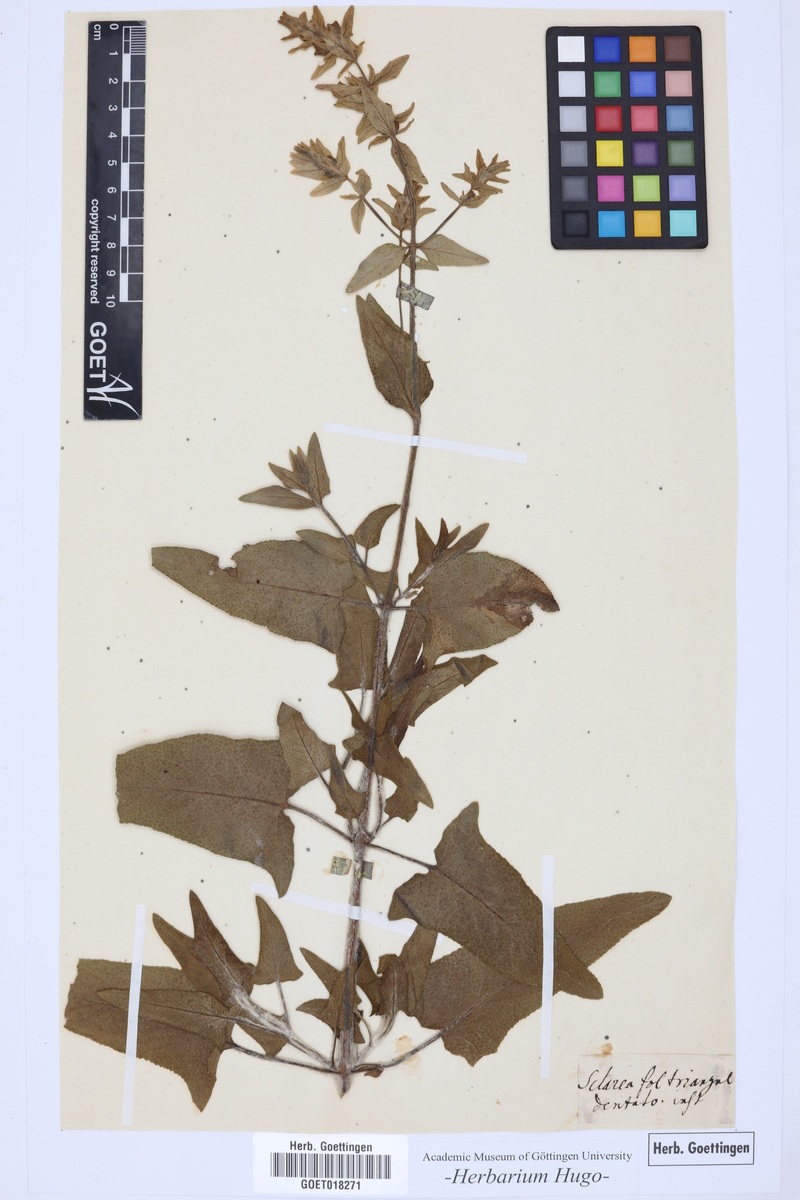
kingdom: Plantae
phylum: Tracheophyta
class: Magnoliopsida
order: Lamiales
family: Lamiaceae
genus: Salvia
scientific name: Salvia
